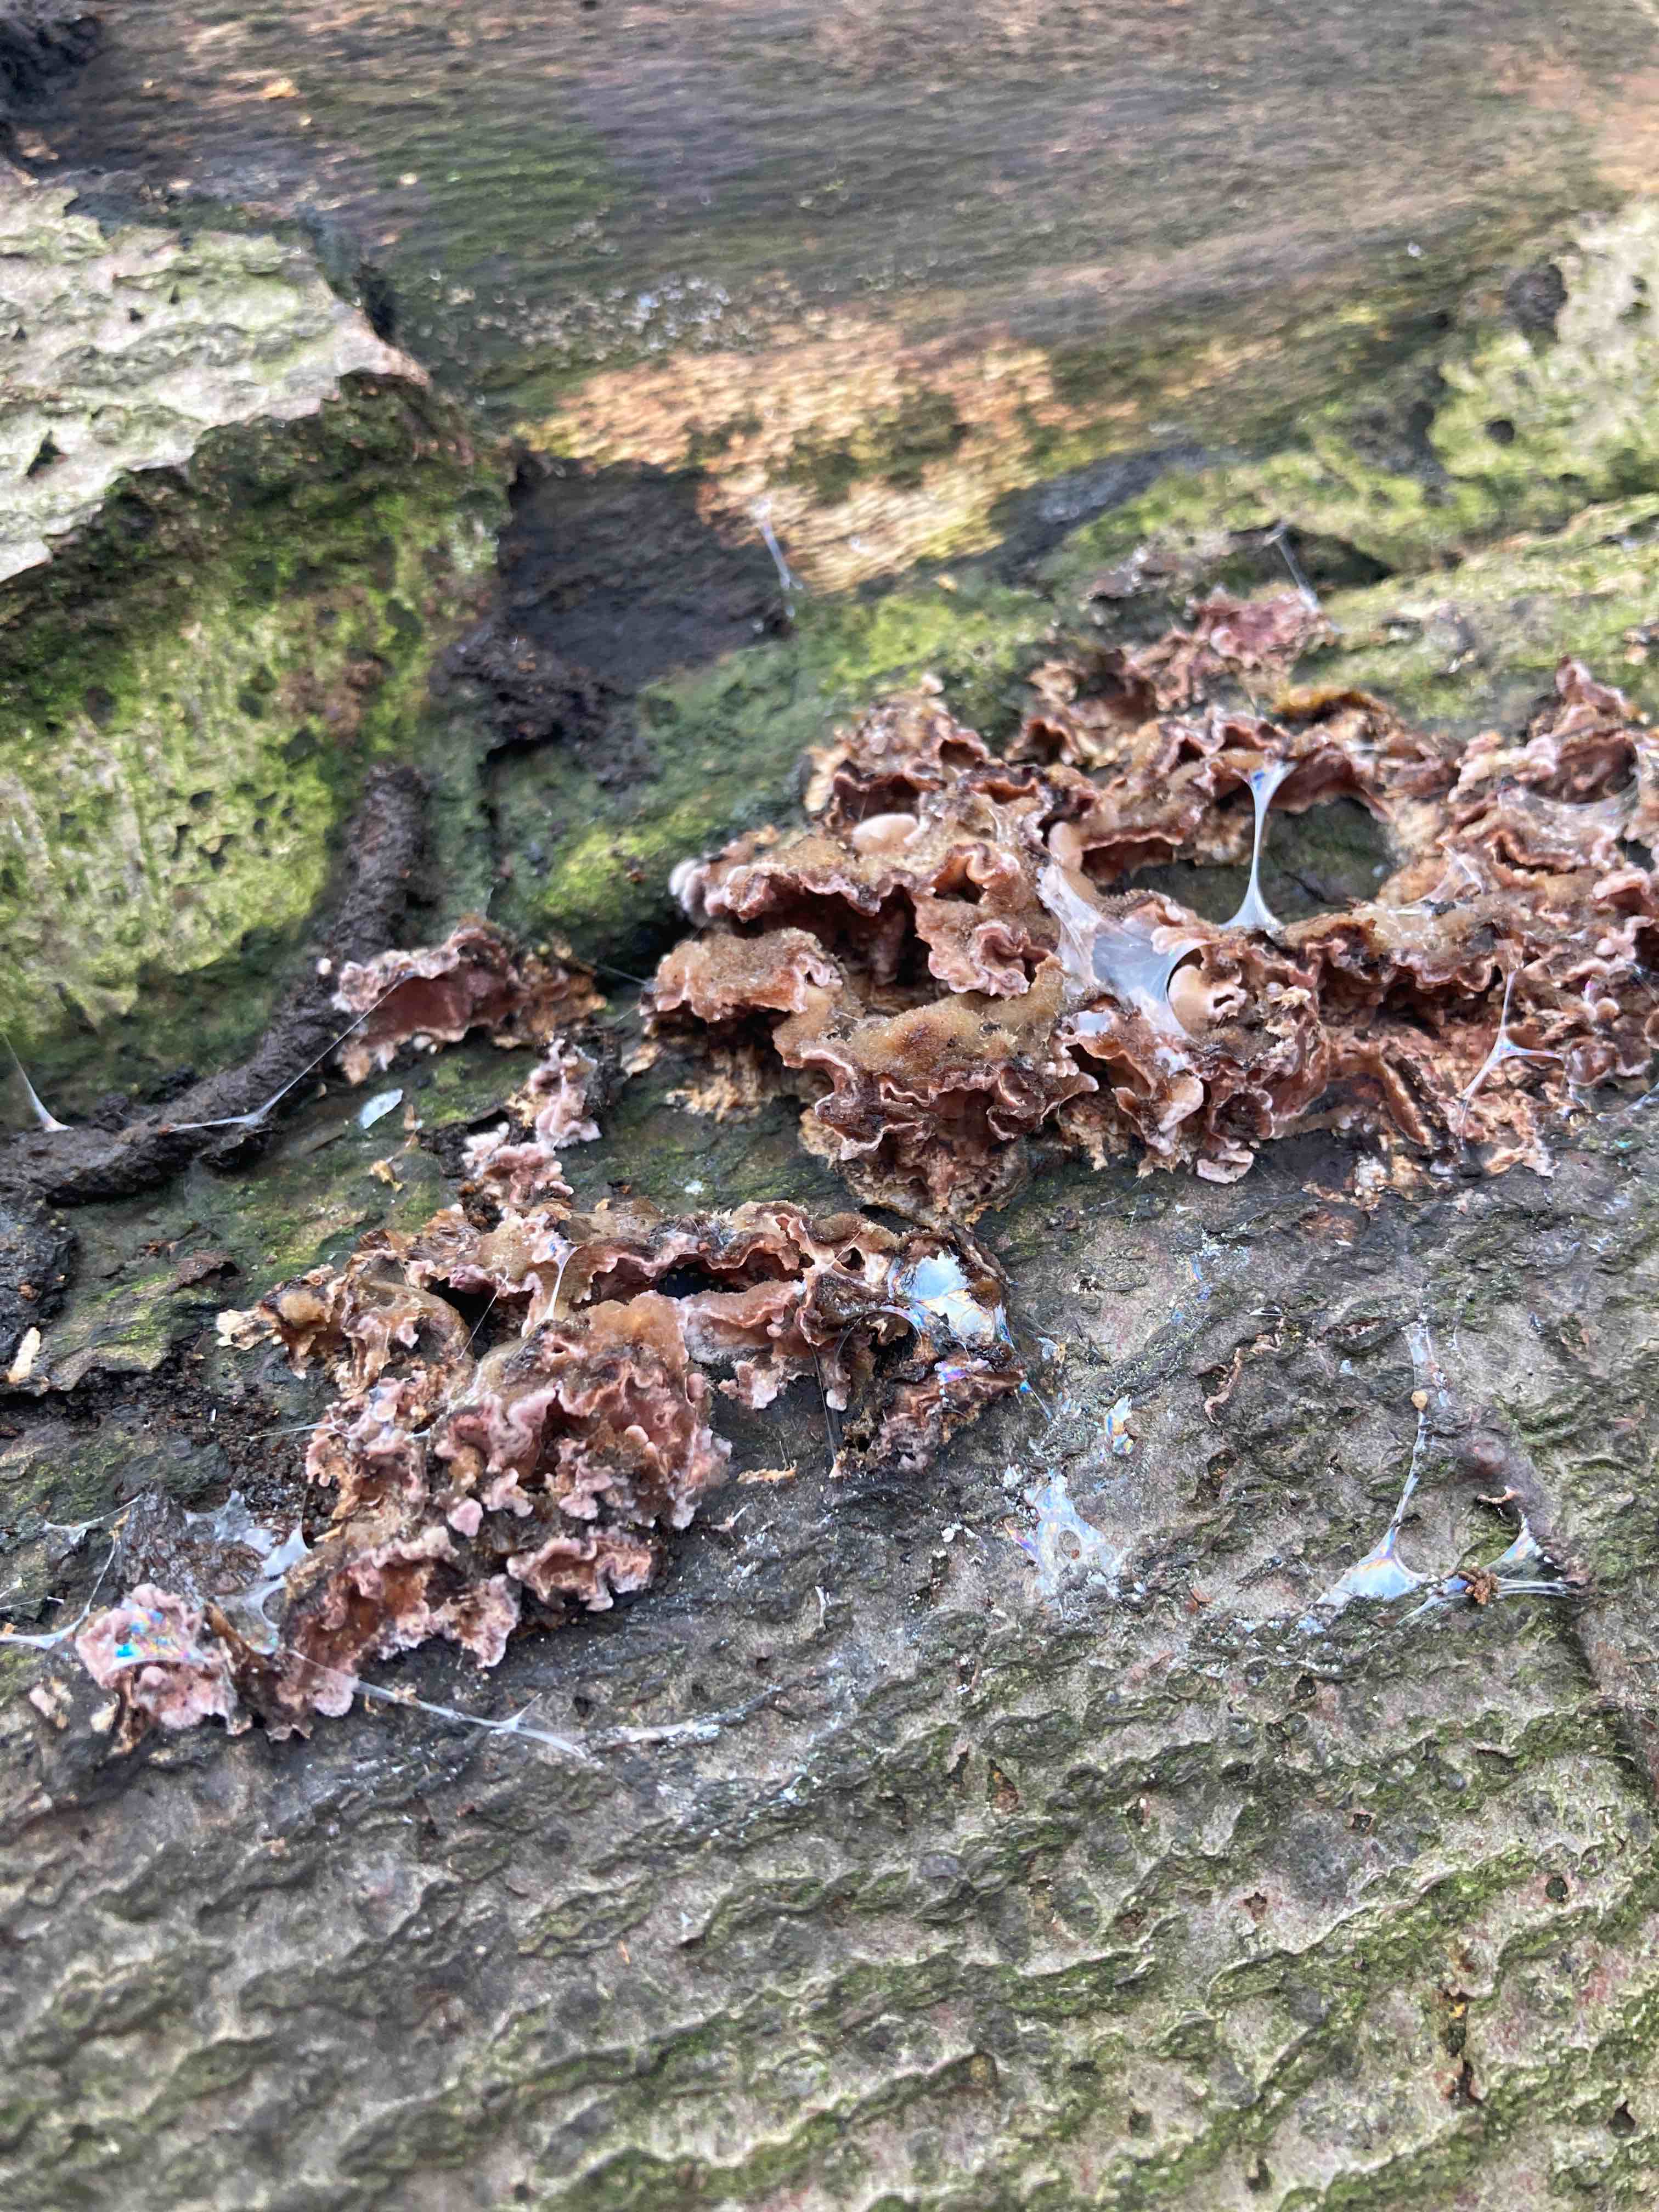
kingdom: Fungi
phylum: Basidiomycota
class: Agaricomycetes
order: Agaricales
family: Cyphellaceae
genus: Chondrostereum
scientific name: Chondrostereum purpureum
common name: purpurlædersvamp
